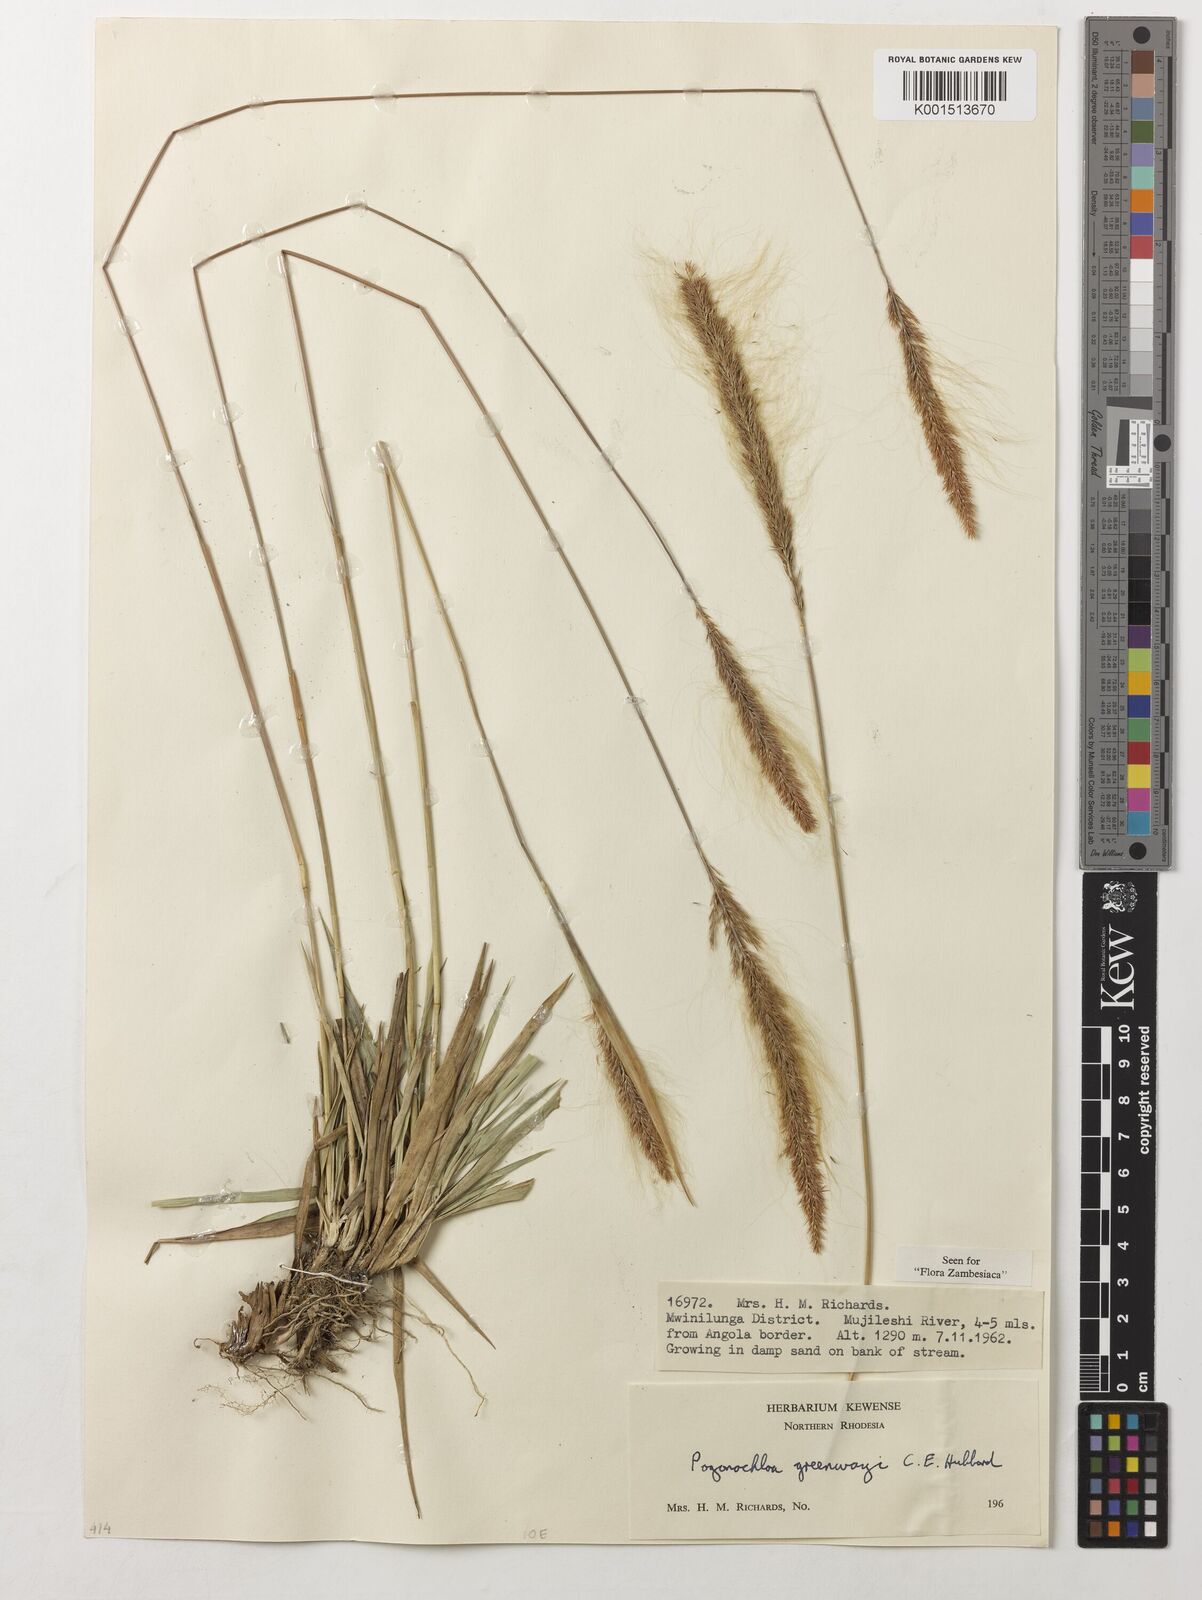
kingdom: Plantae
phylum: Tracheophyta
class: Liliopsida
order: Poales
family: Poaceae
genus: Pogonochloa
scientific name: Pogonochloa greenwayi
